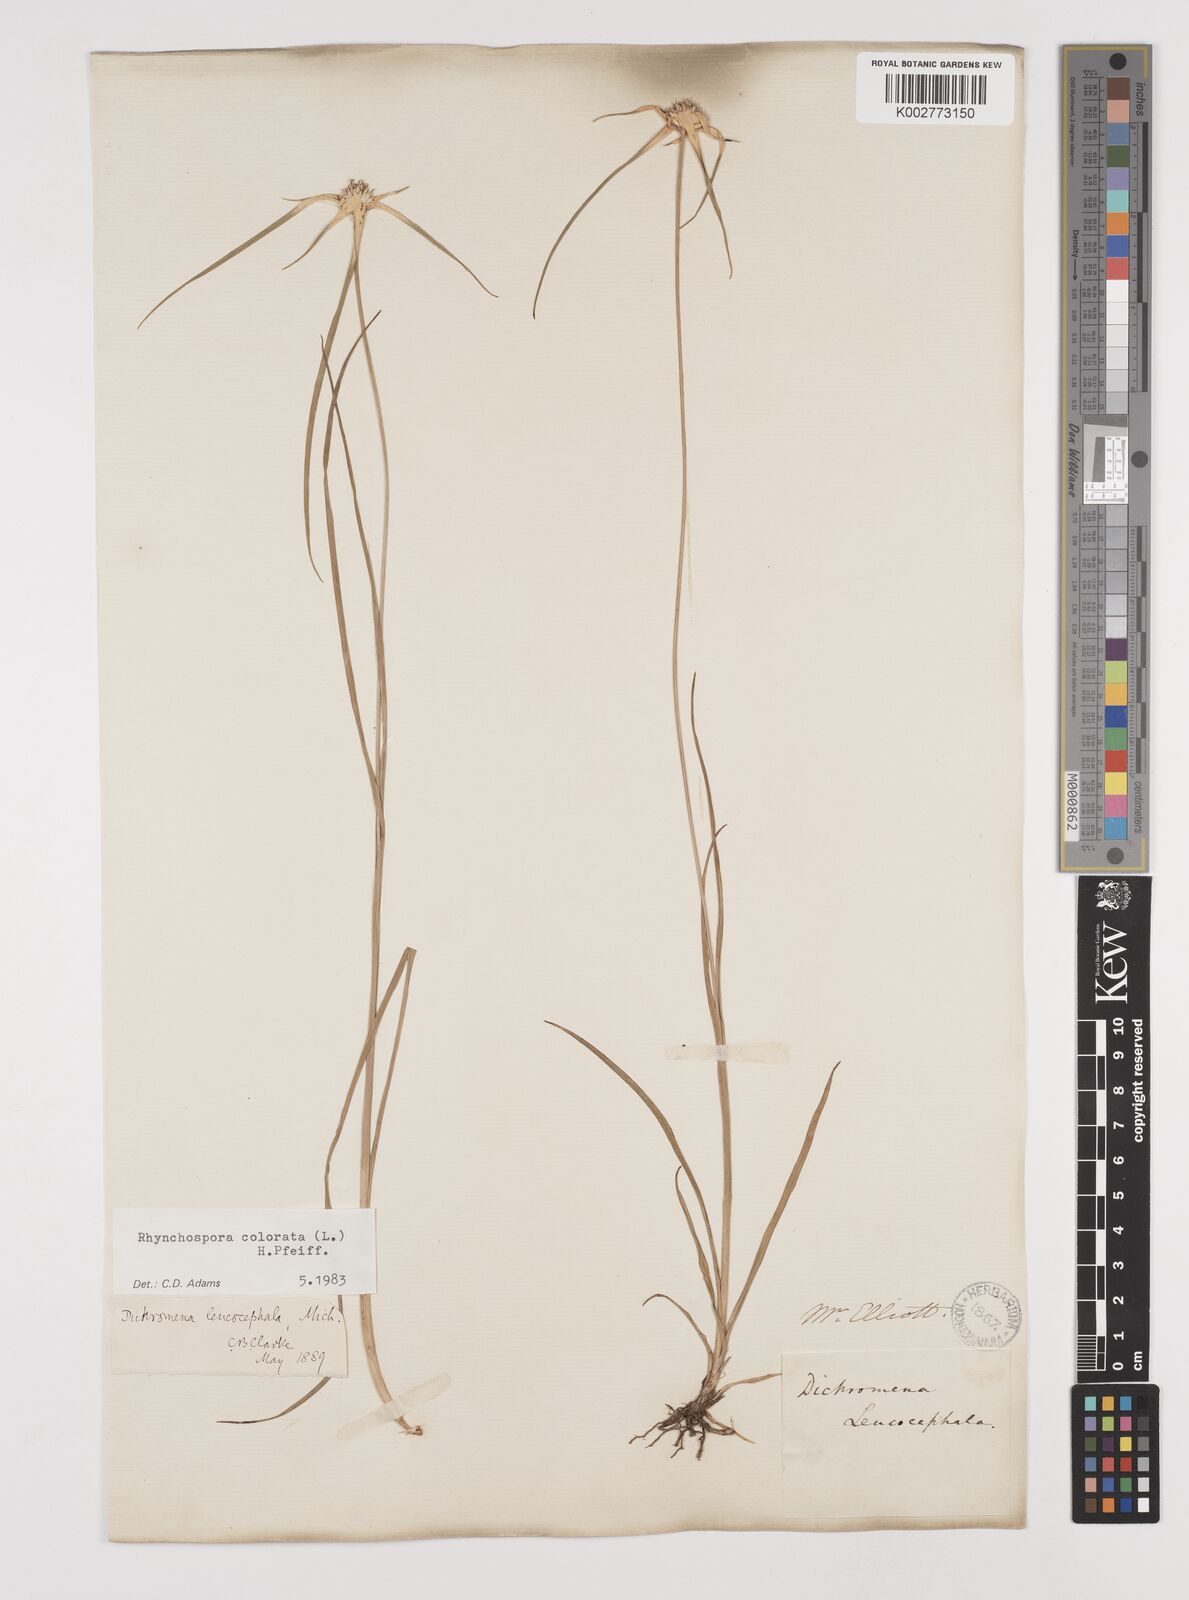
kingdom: Plantae
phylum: Tracheophyta
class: Liliopsida
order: Poales
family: Cyperaceae
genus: Rhynchospora
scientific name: Rhynchospora colorata
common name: Star sedge
